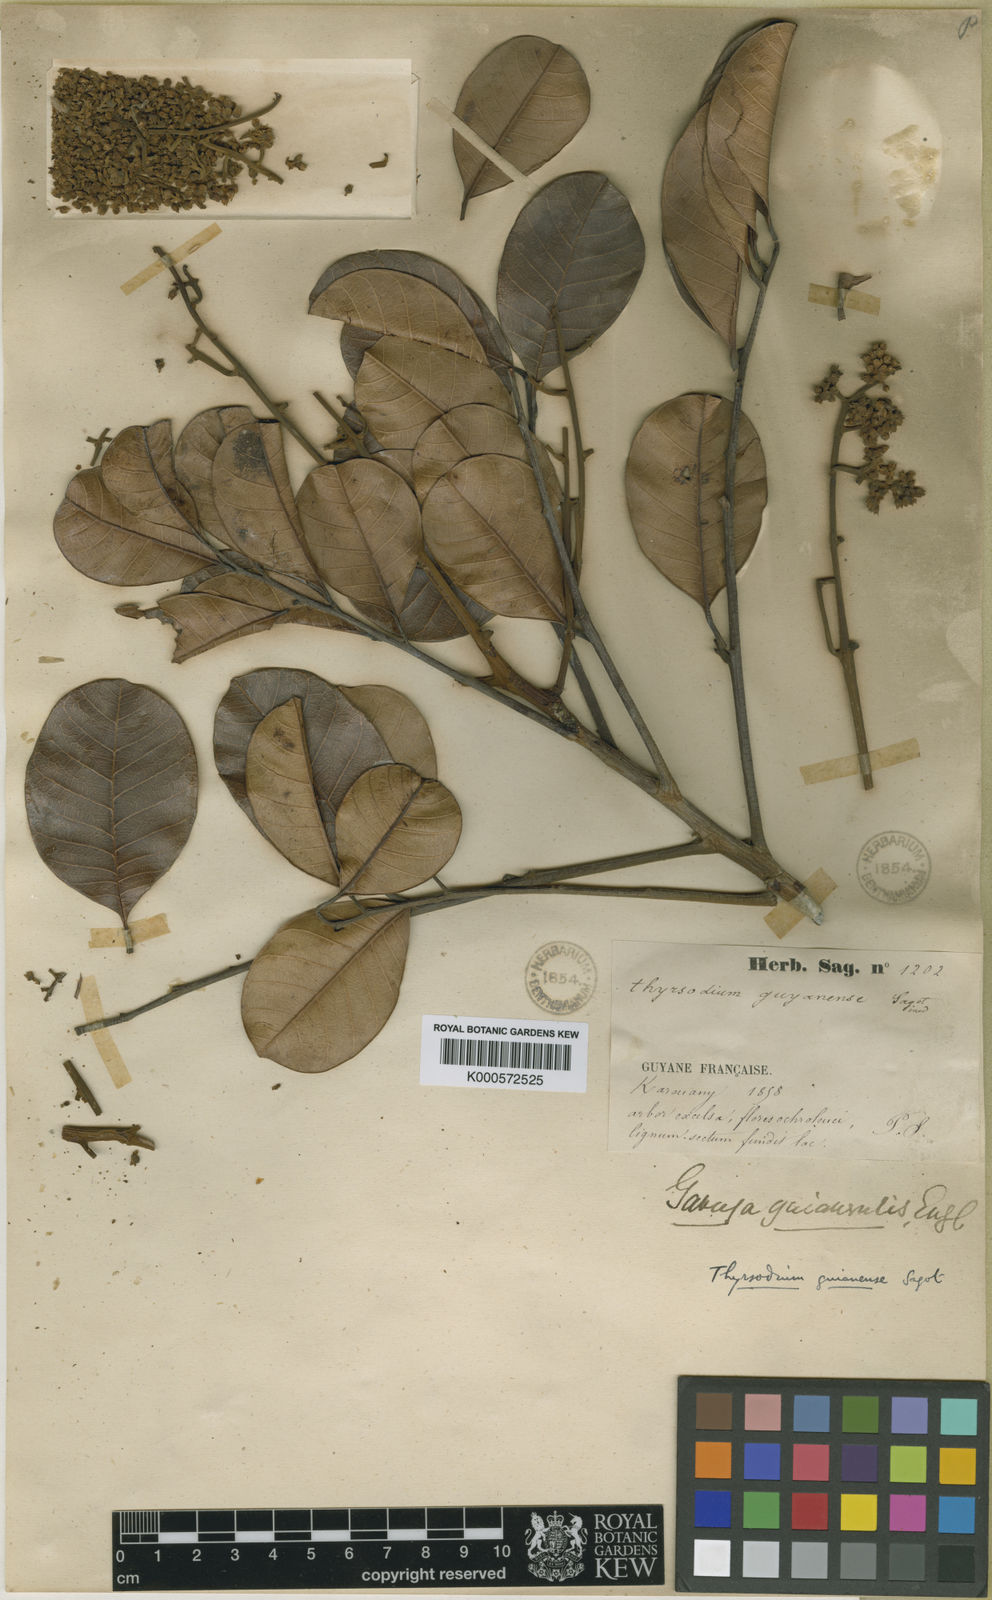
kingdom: Plantae
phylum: Tracheophyta
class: Magnoliopsida
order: Sapindales
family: Anacardiaceae
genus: Thyrsodium
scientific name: Thyrsodium guianense
